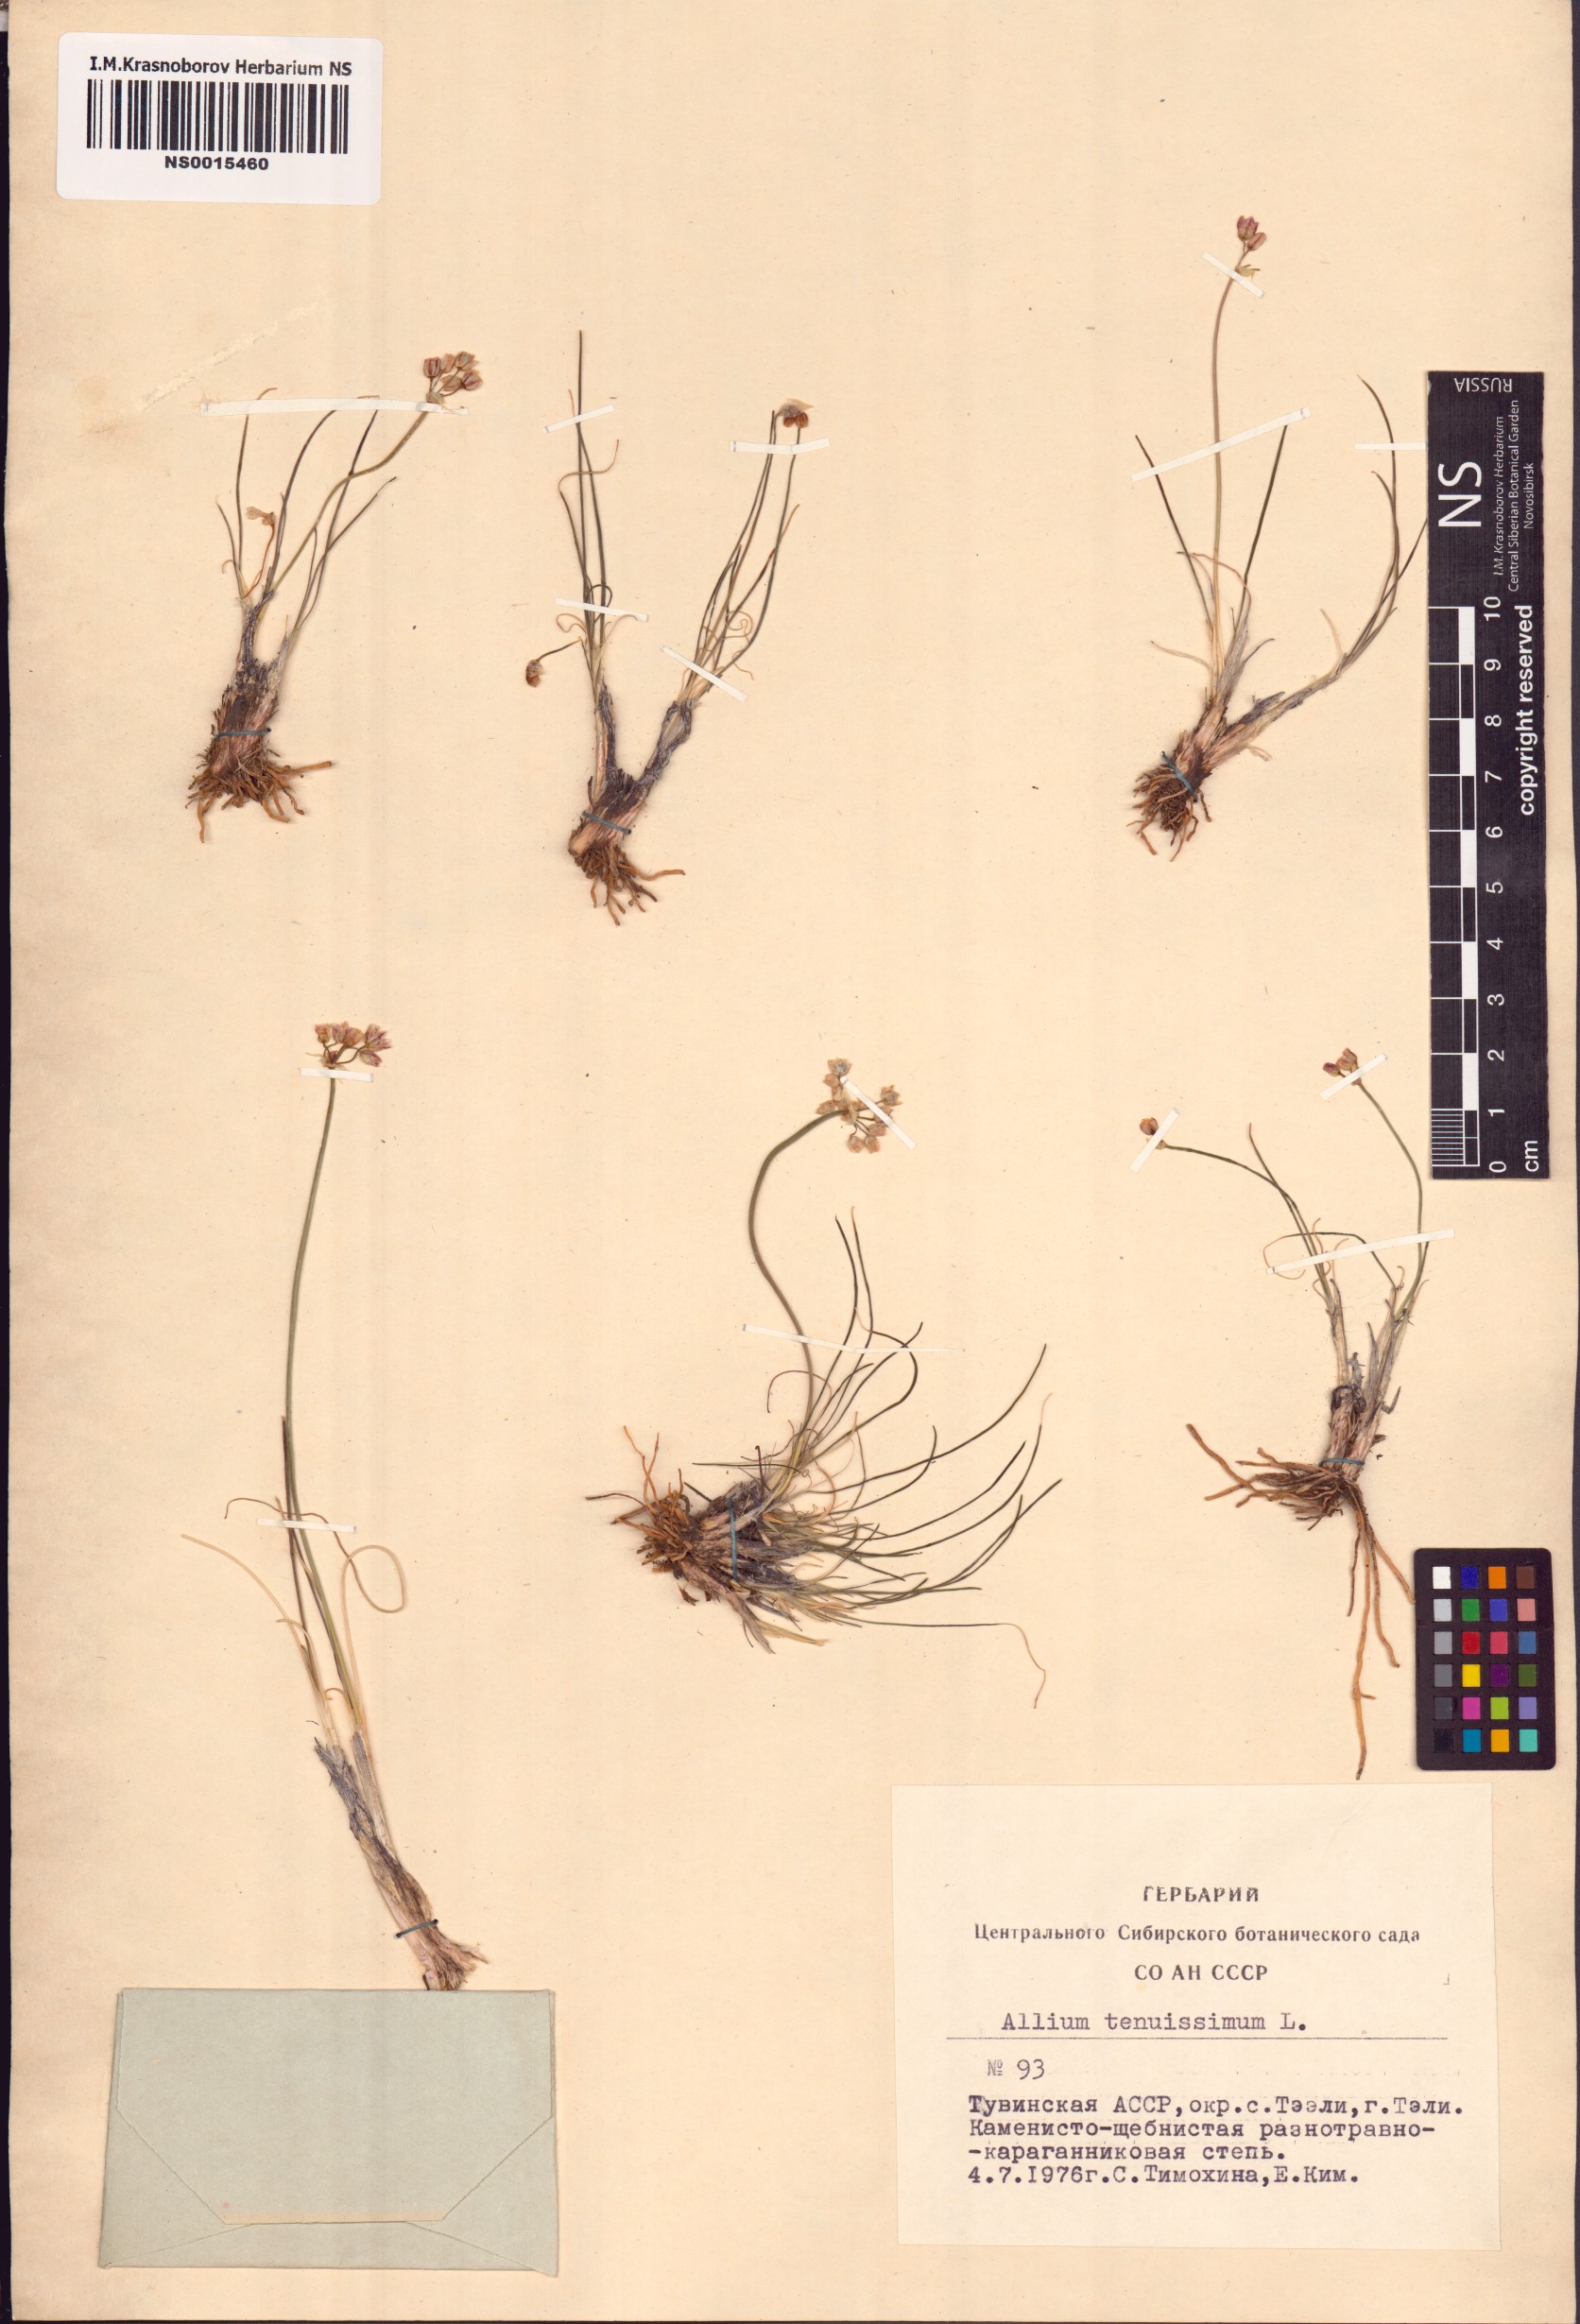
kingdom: Plantae
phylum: Tracheophyta
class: Liliopsida
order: Asparagales
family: Amaryllidaceae
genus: Allium
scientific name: Allium tenuissimum
